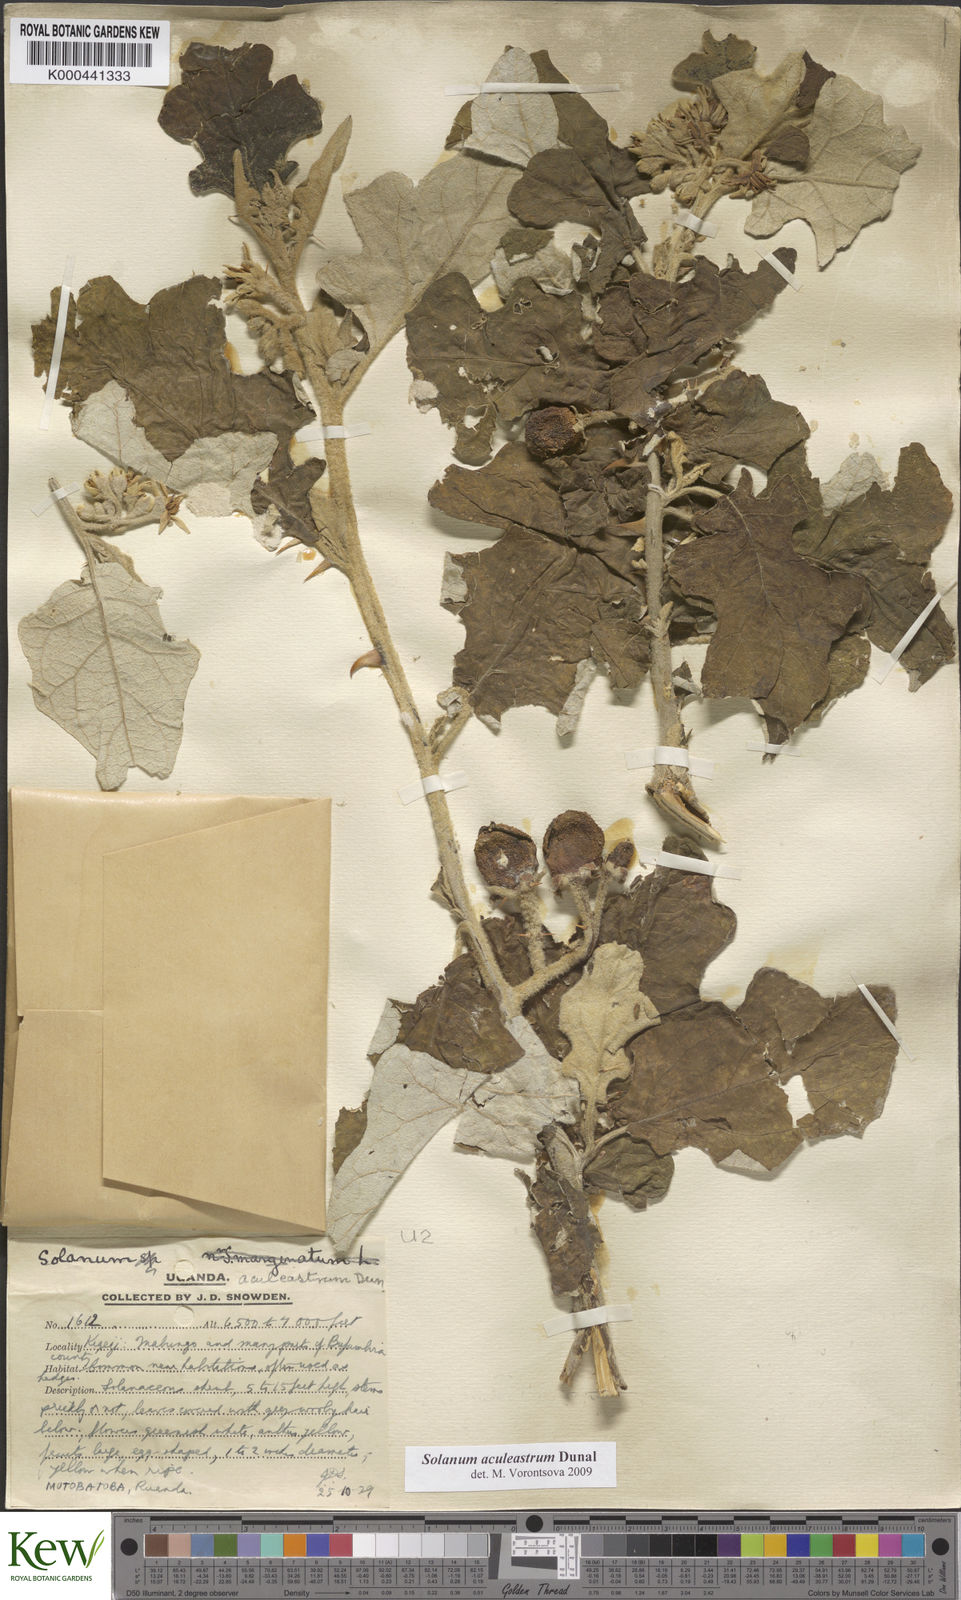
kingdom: Plantae
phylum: Tracheophyta
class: Magnoliopsida
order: Solanales
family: Solanaceae
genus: Solanum
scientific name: Solanum aculeastrum
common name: Goat bitter-apple
